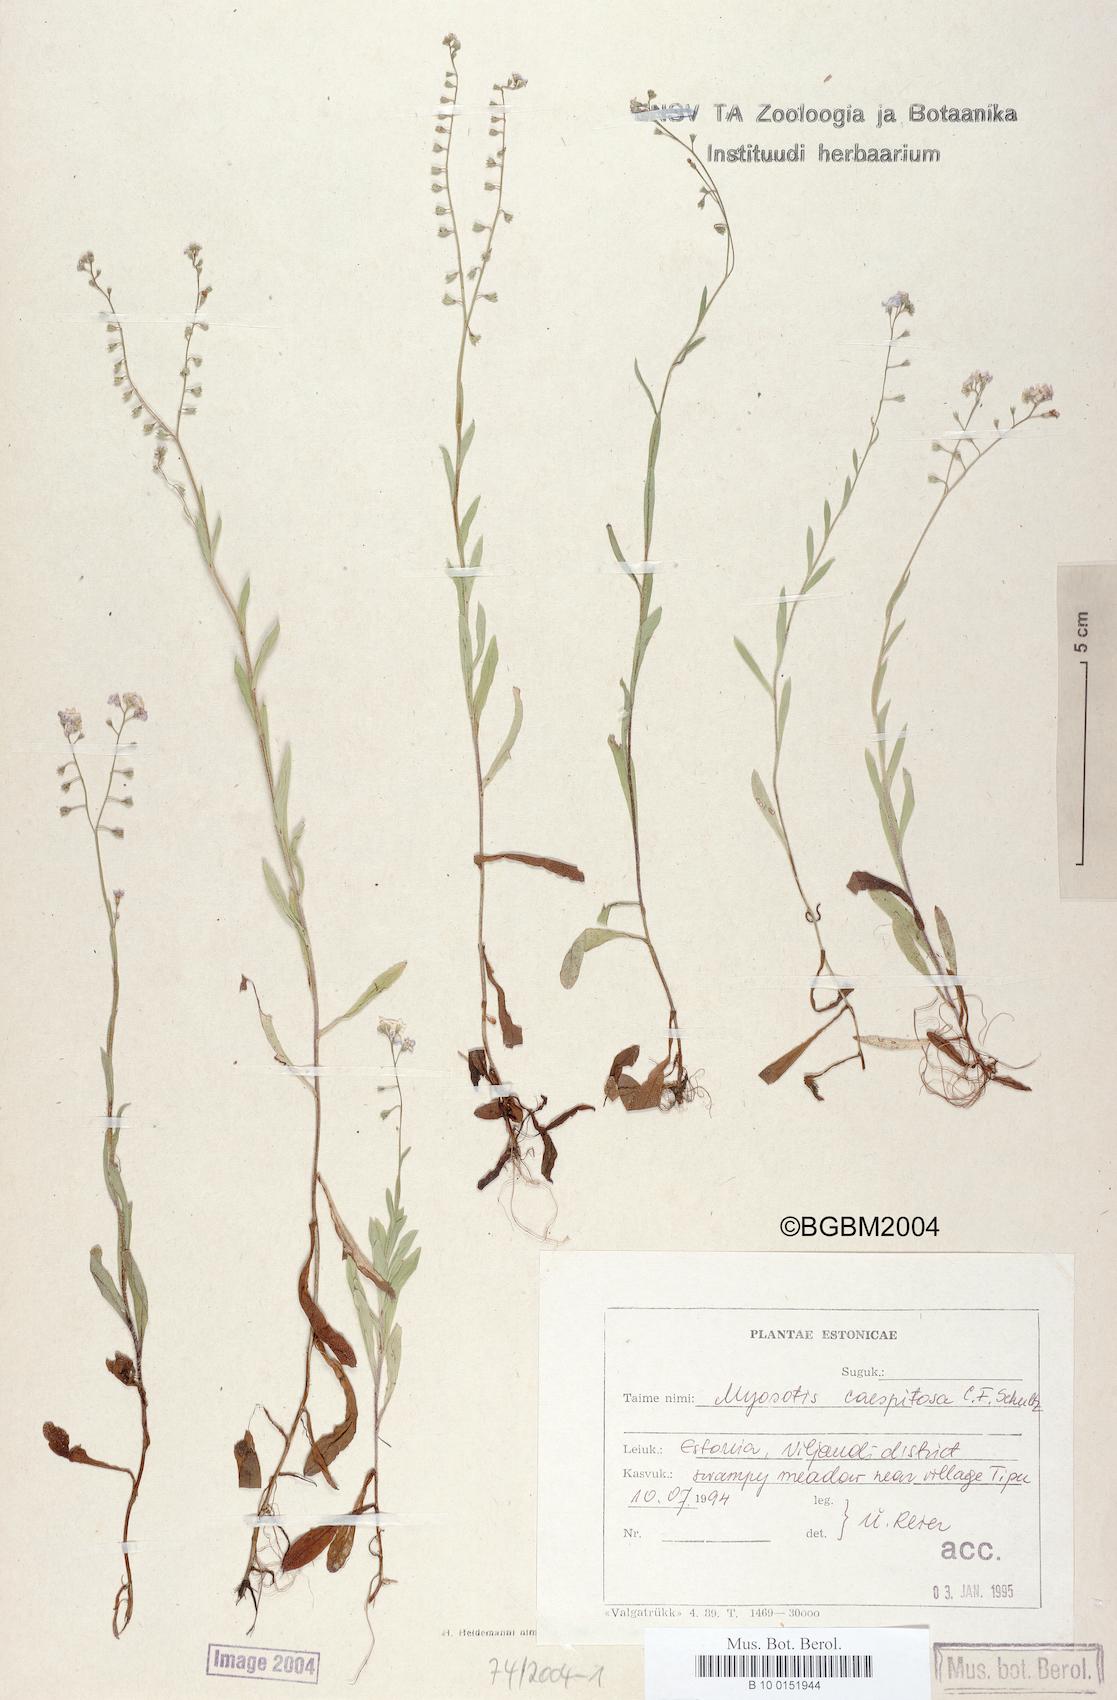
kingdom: Plantae
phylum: Tracheophyta
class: Magnoliopsida
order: Boraginales
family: Boraginaceae
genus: Myosotis
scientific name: Myosotis caespitosa
